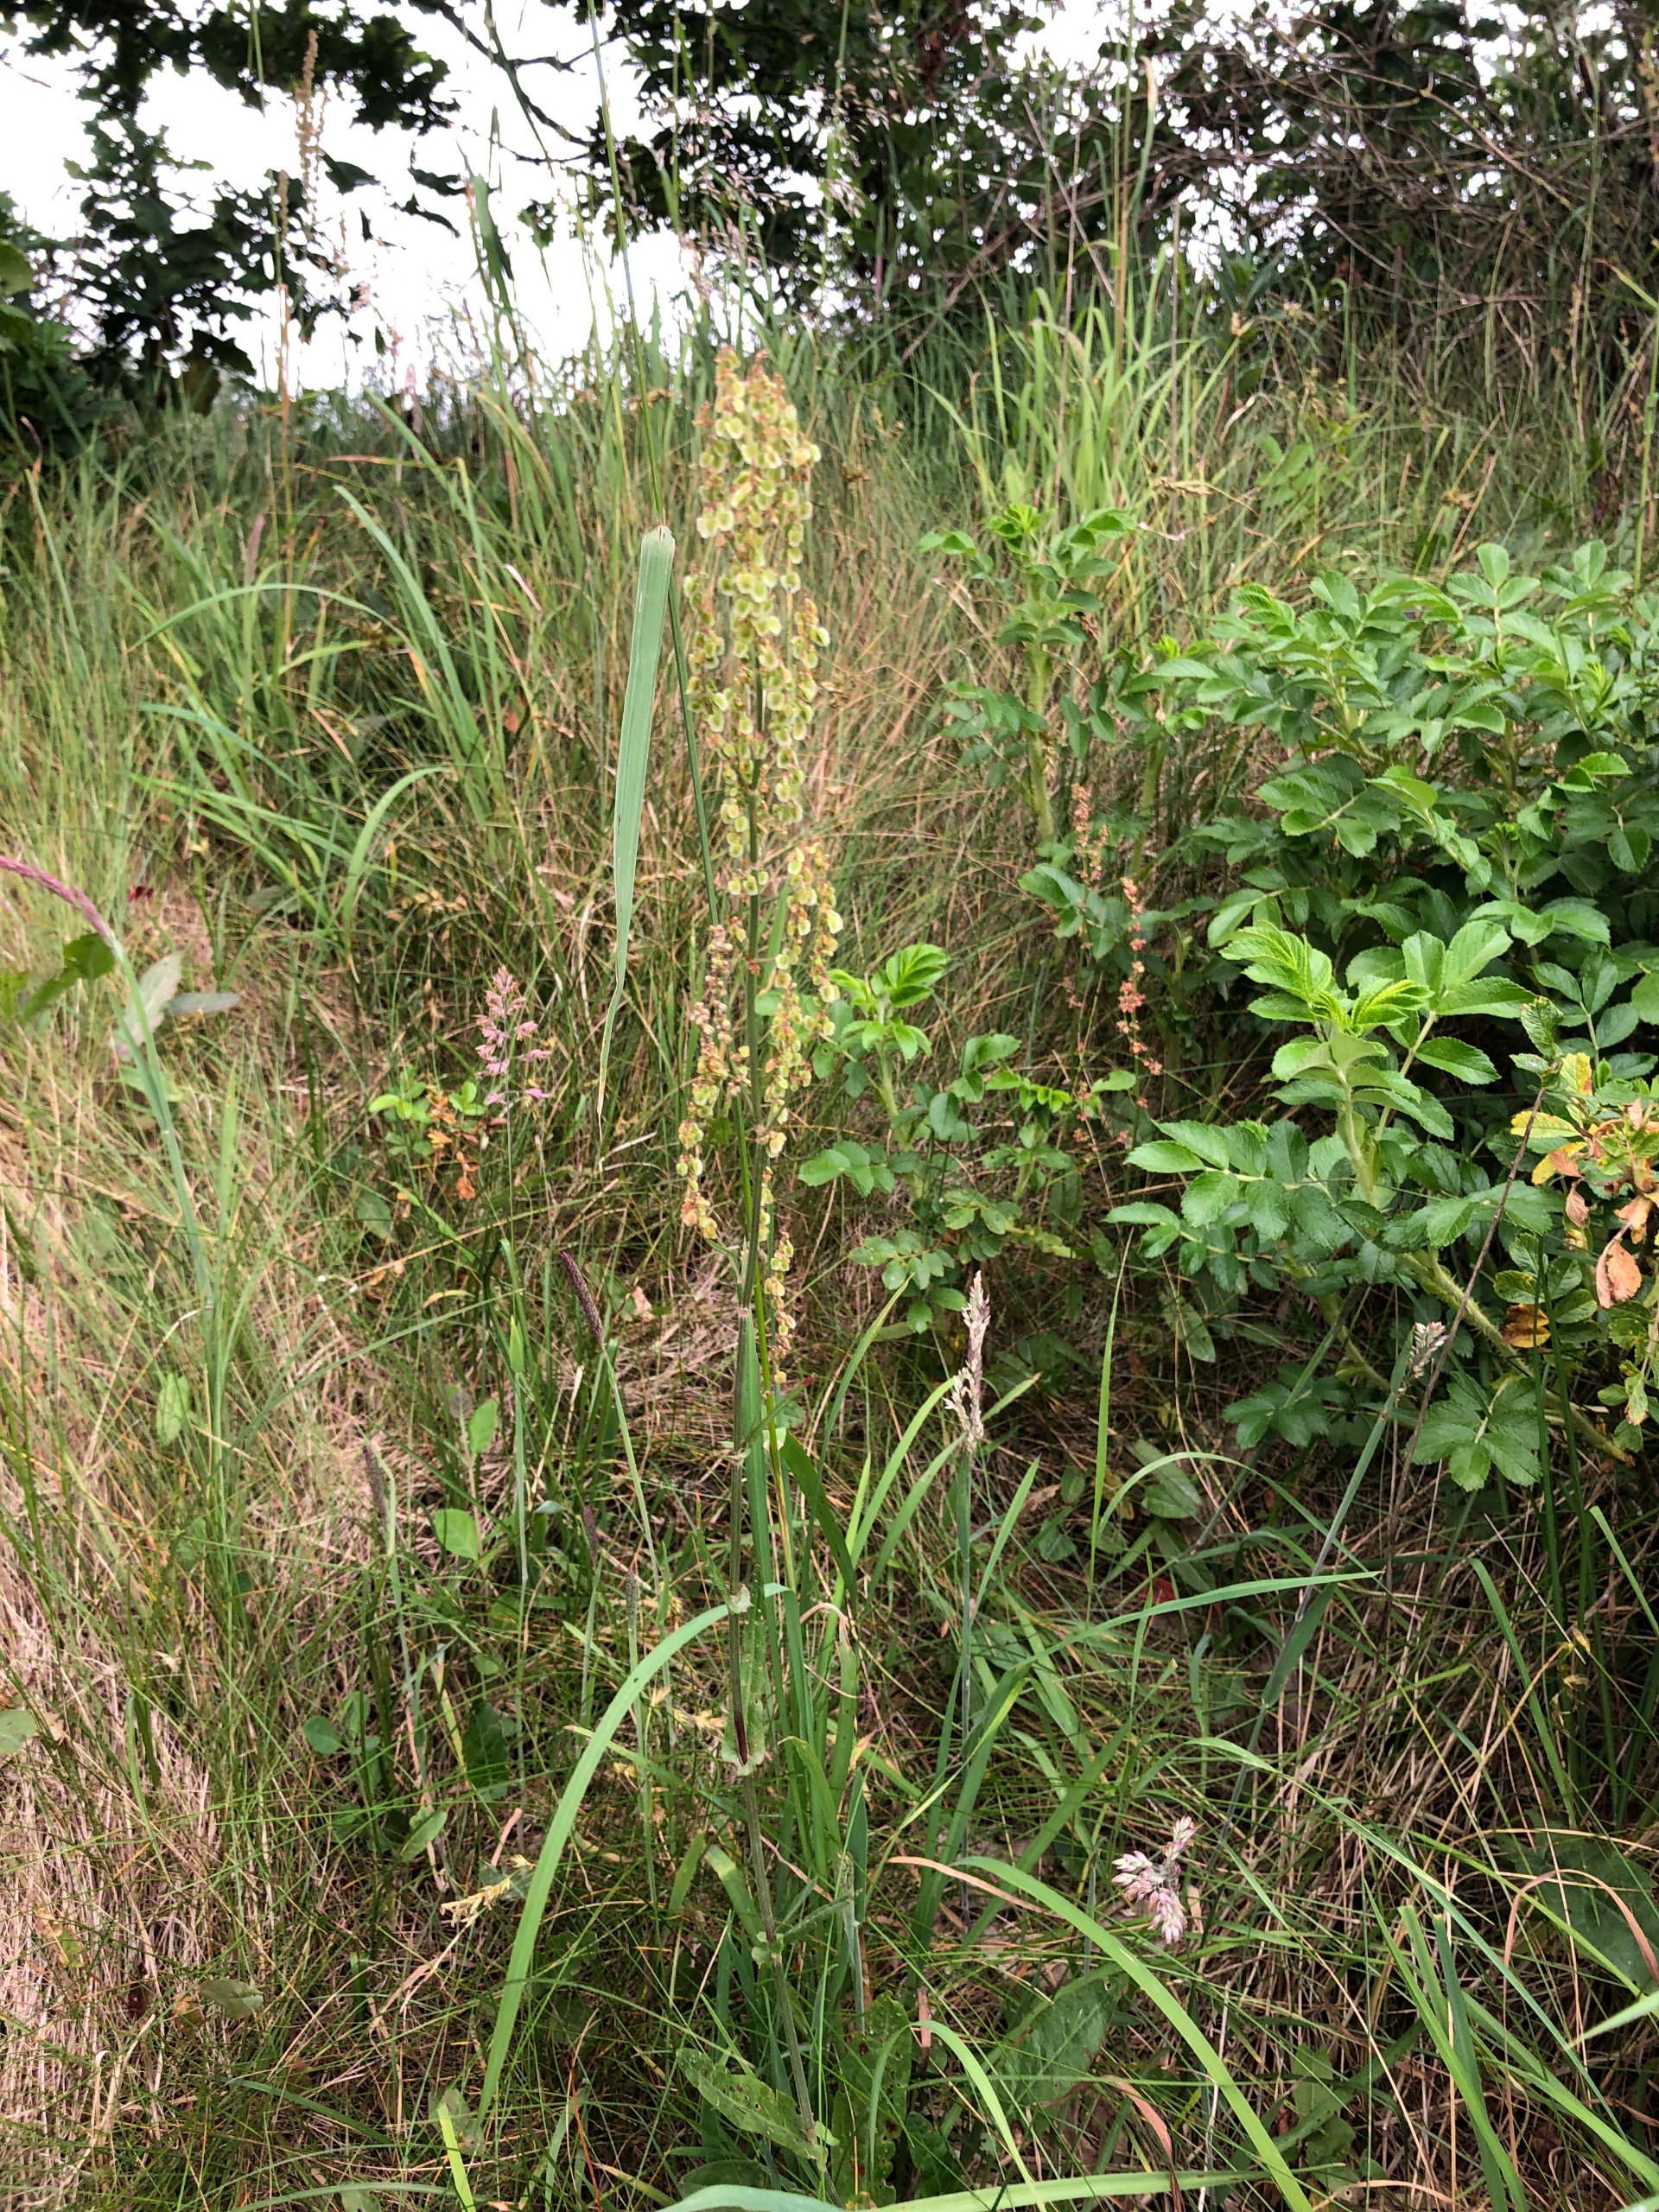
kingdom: Plantae
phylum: Tracheophyta
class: Magnoliopsida
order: Caryophyllales
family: Polygonaceae
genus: Rumex
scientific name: Rumex acetosa
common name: Almindelig syre
